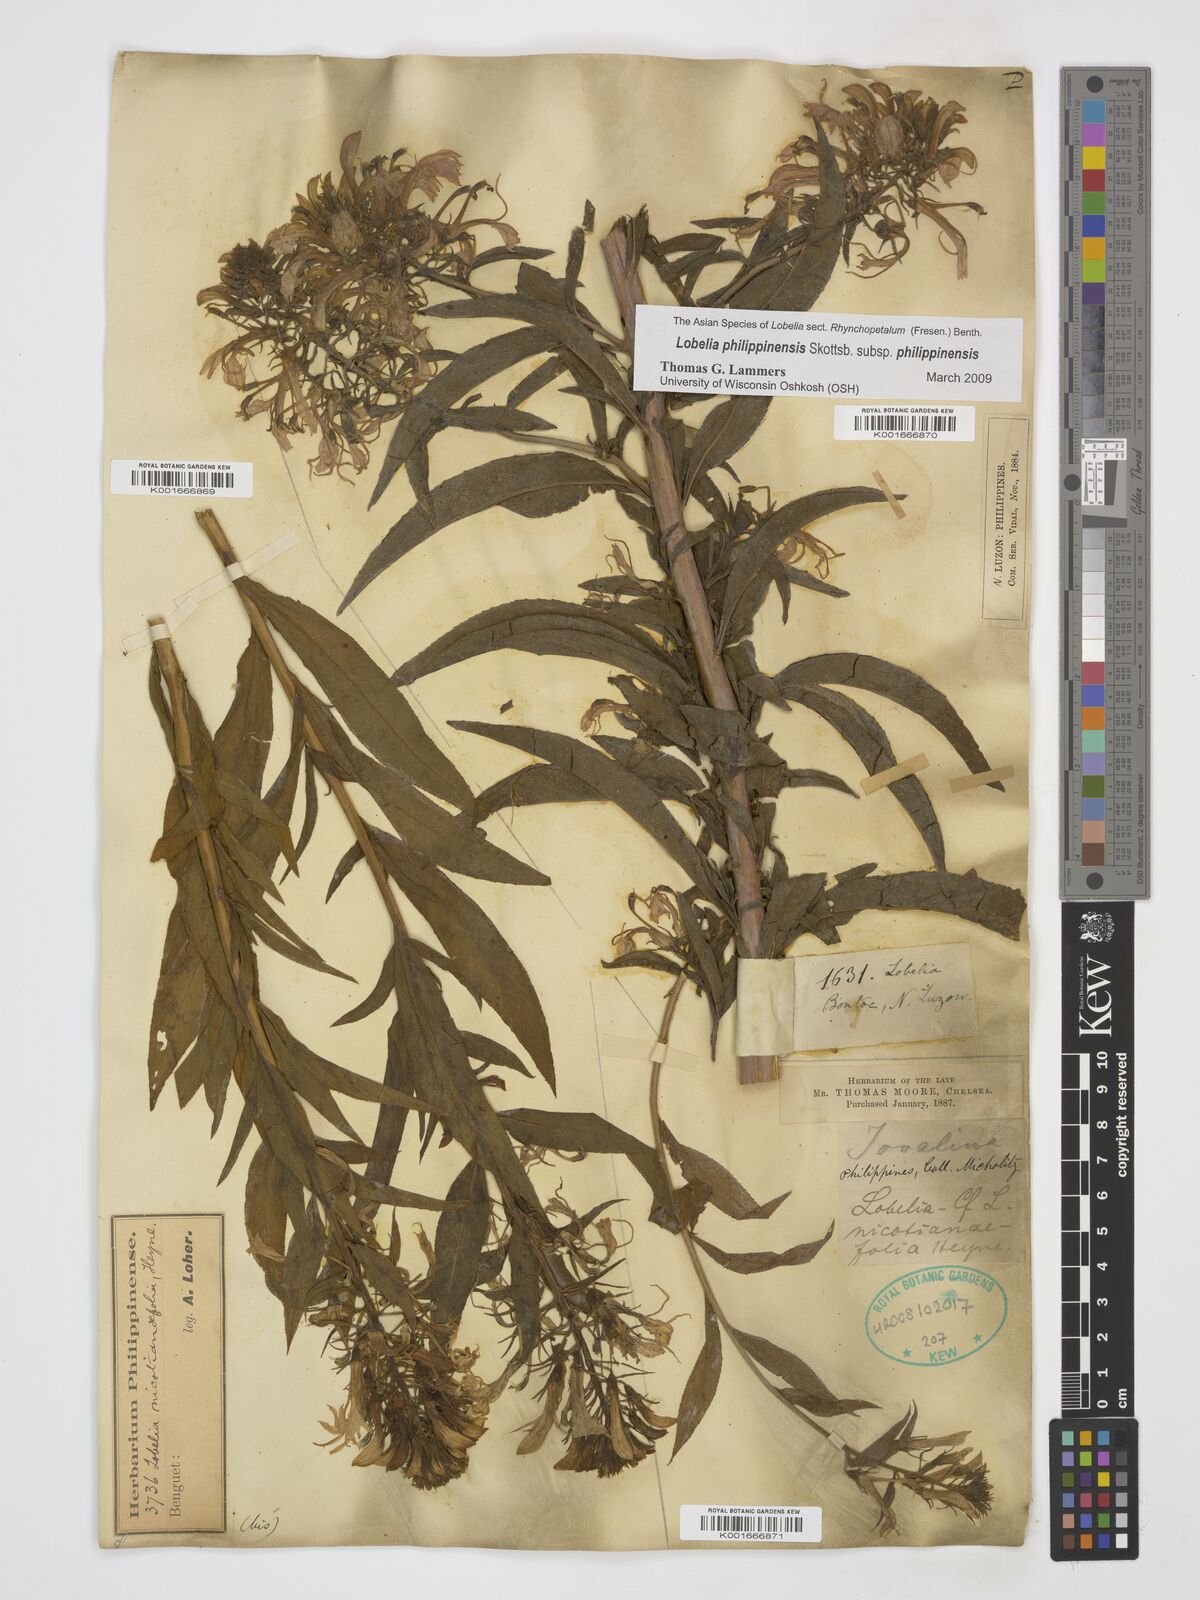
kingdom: Plantae
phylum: Tracheophyta
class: Magnoliopsida
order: Asterales
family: Campanulaceae
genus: Lobelia
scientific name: Lobelia philippinensis
